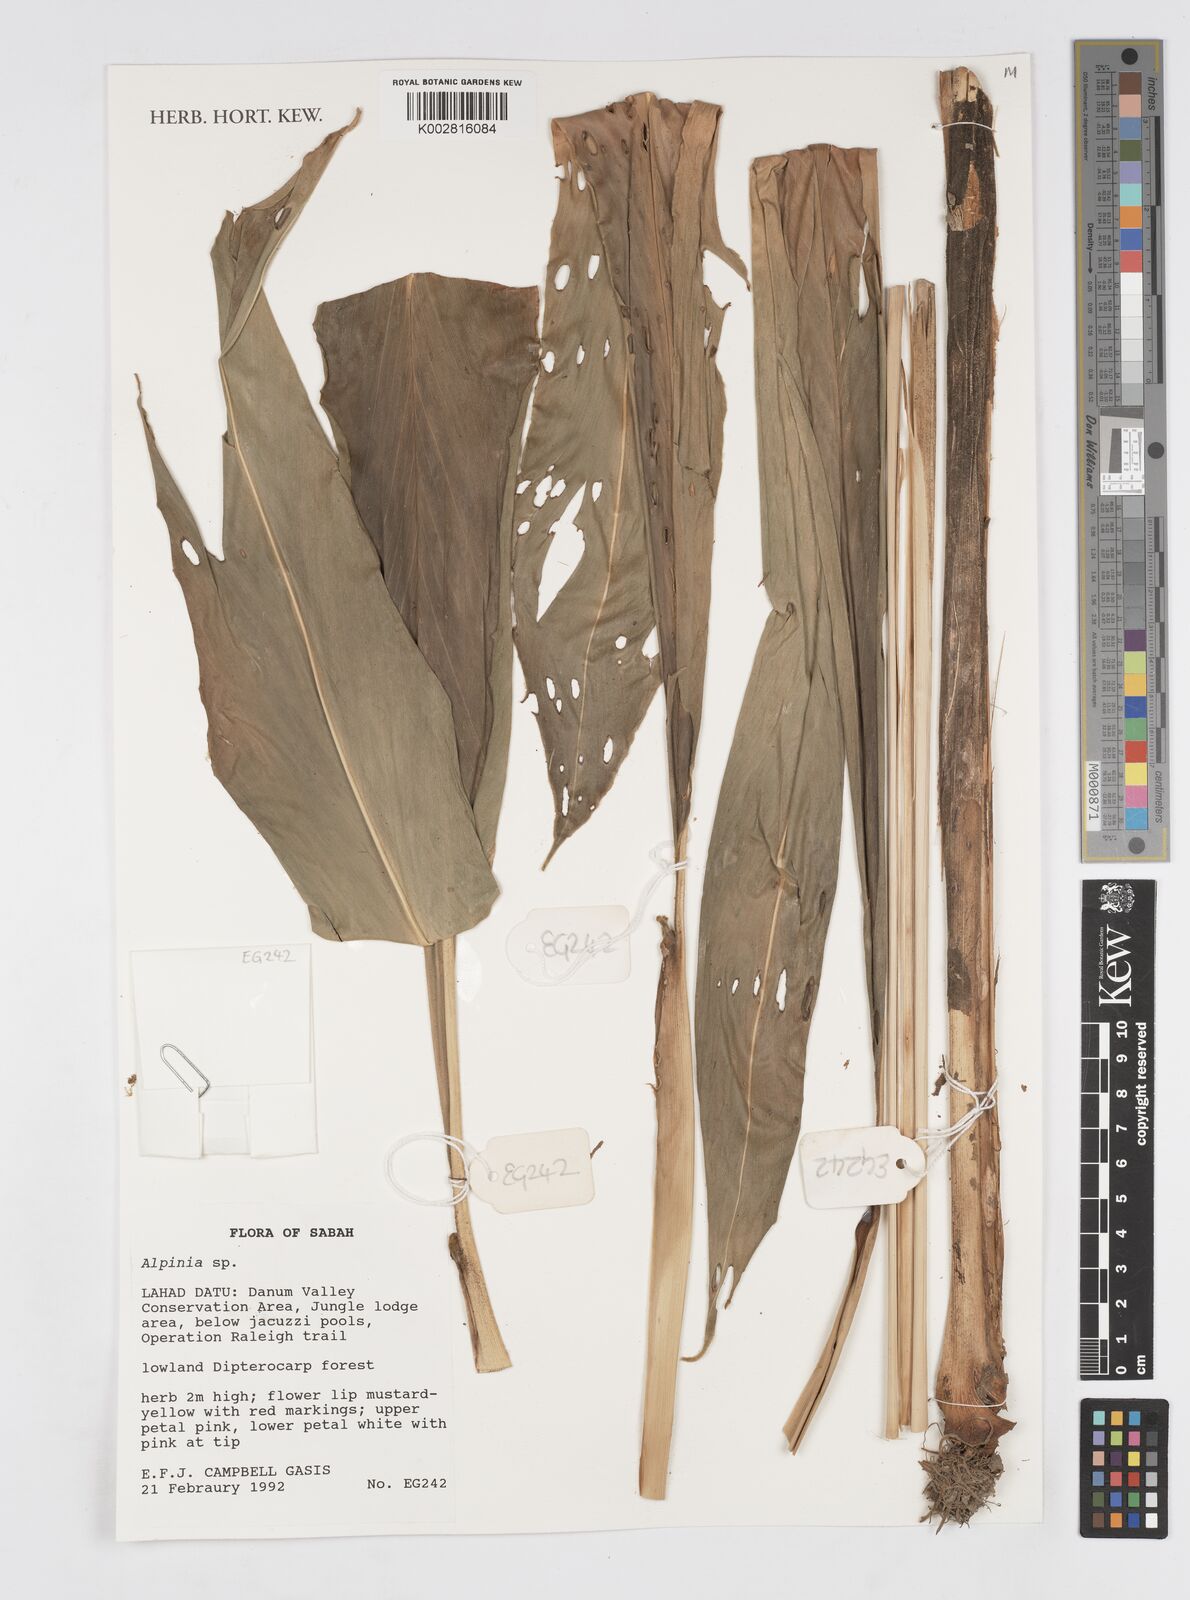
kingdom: Plantae
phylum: Tracheophyta
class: Liliopsida
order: Zingiberales
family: Zingiberaceae
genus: Alpinia
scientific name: Alpinia
